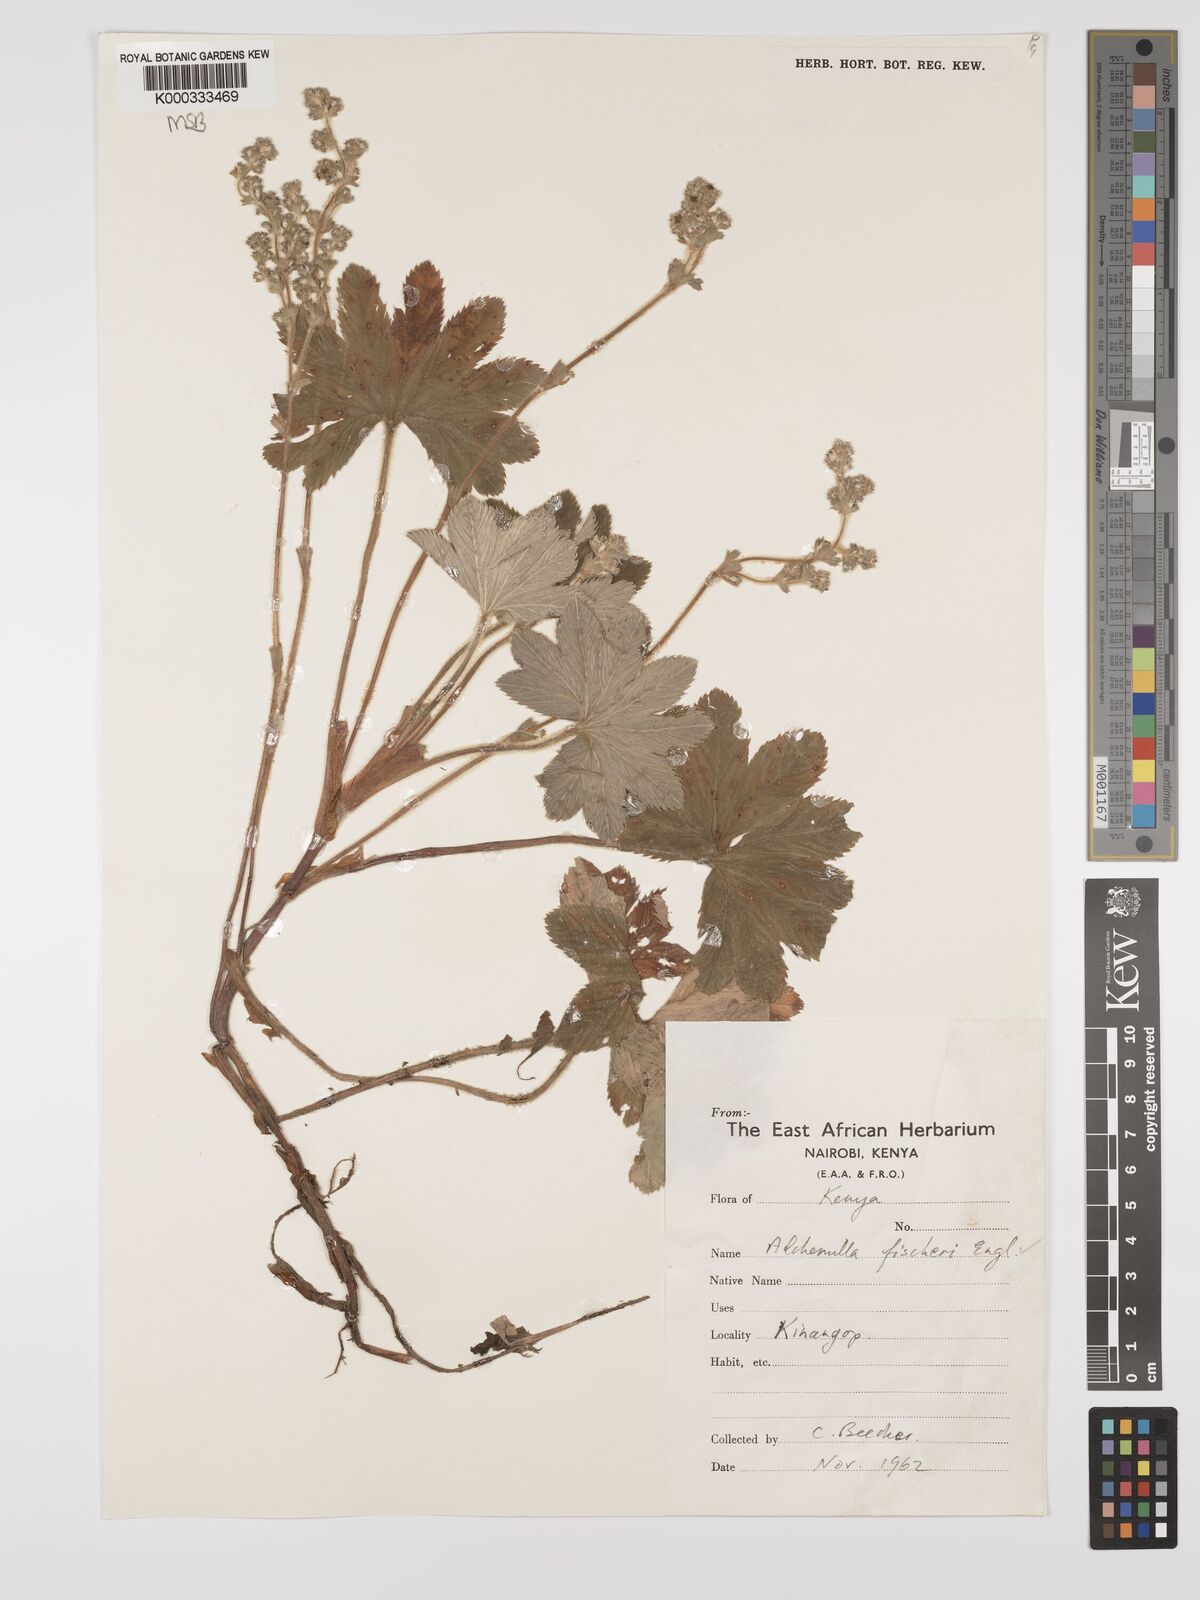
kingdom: Plantae
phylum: Tracheophyta
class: Magnoliopsida
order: Rosales
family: Rosaceae
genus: Alchemilla
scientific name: Alchemilla fischeri
